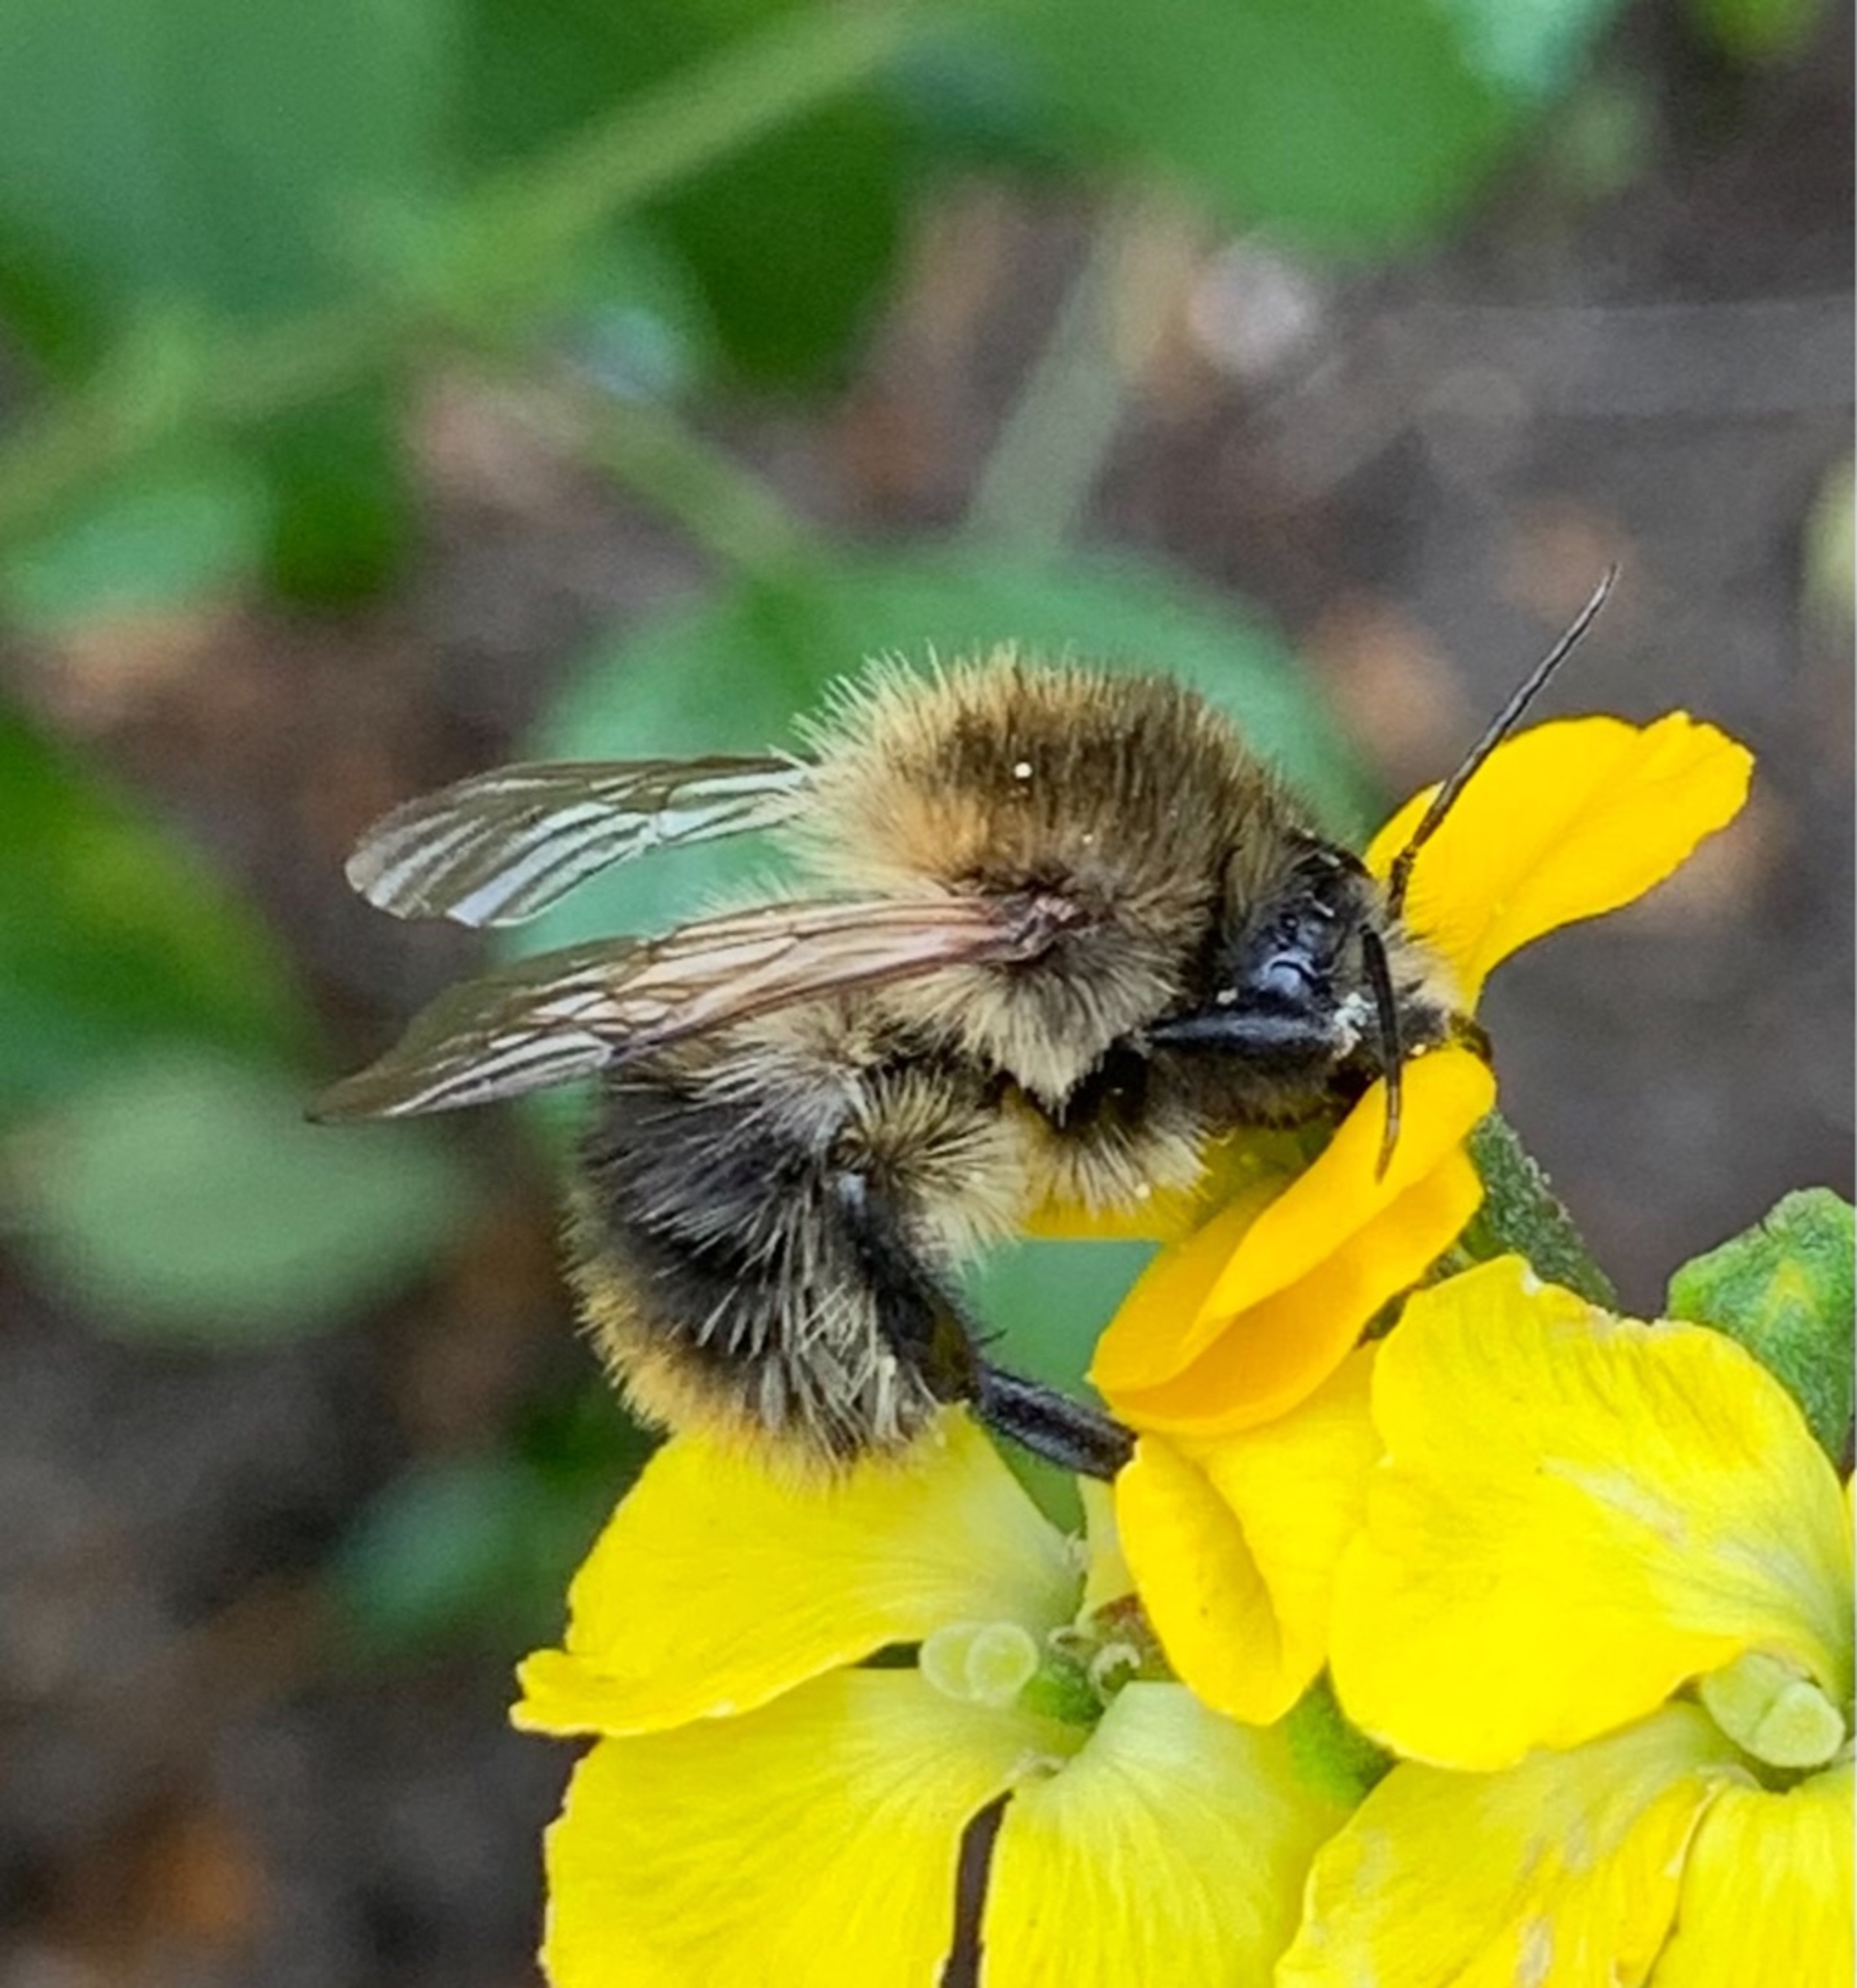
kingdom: Animalia
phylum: Arthropoda
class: Insecta
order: Hymenoptera
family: Apidae
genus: Bombus
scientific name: Bombus pascuorum
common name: Agerhumle
